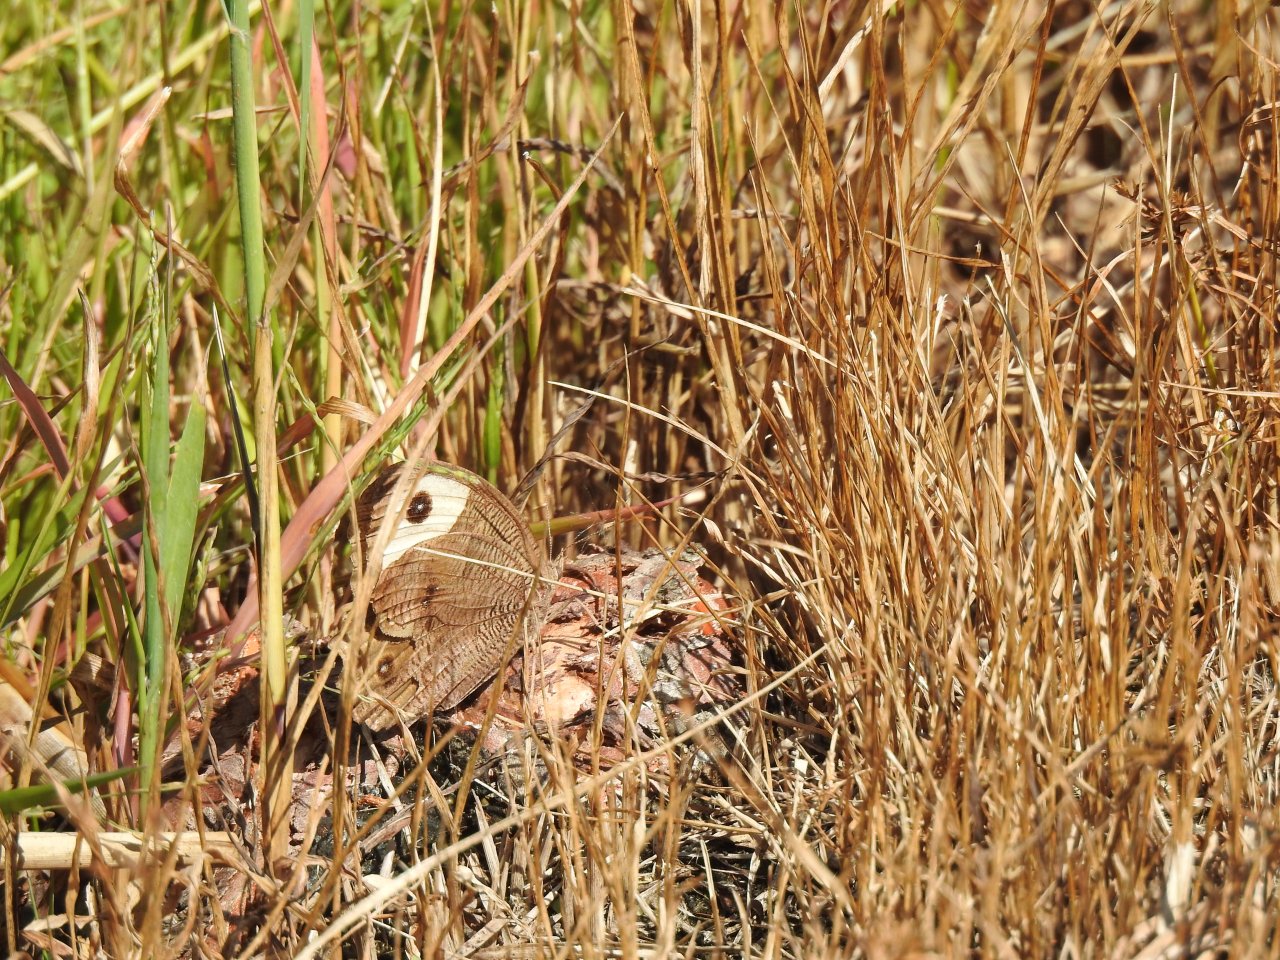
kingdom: Animalia
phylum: Arthropoda
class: Insecta
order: Lepidoptera
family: Nymphalidae
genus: Cercyonis
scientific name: Cercyonis pegala
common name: Common Wood-Nymph
